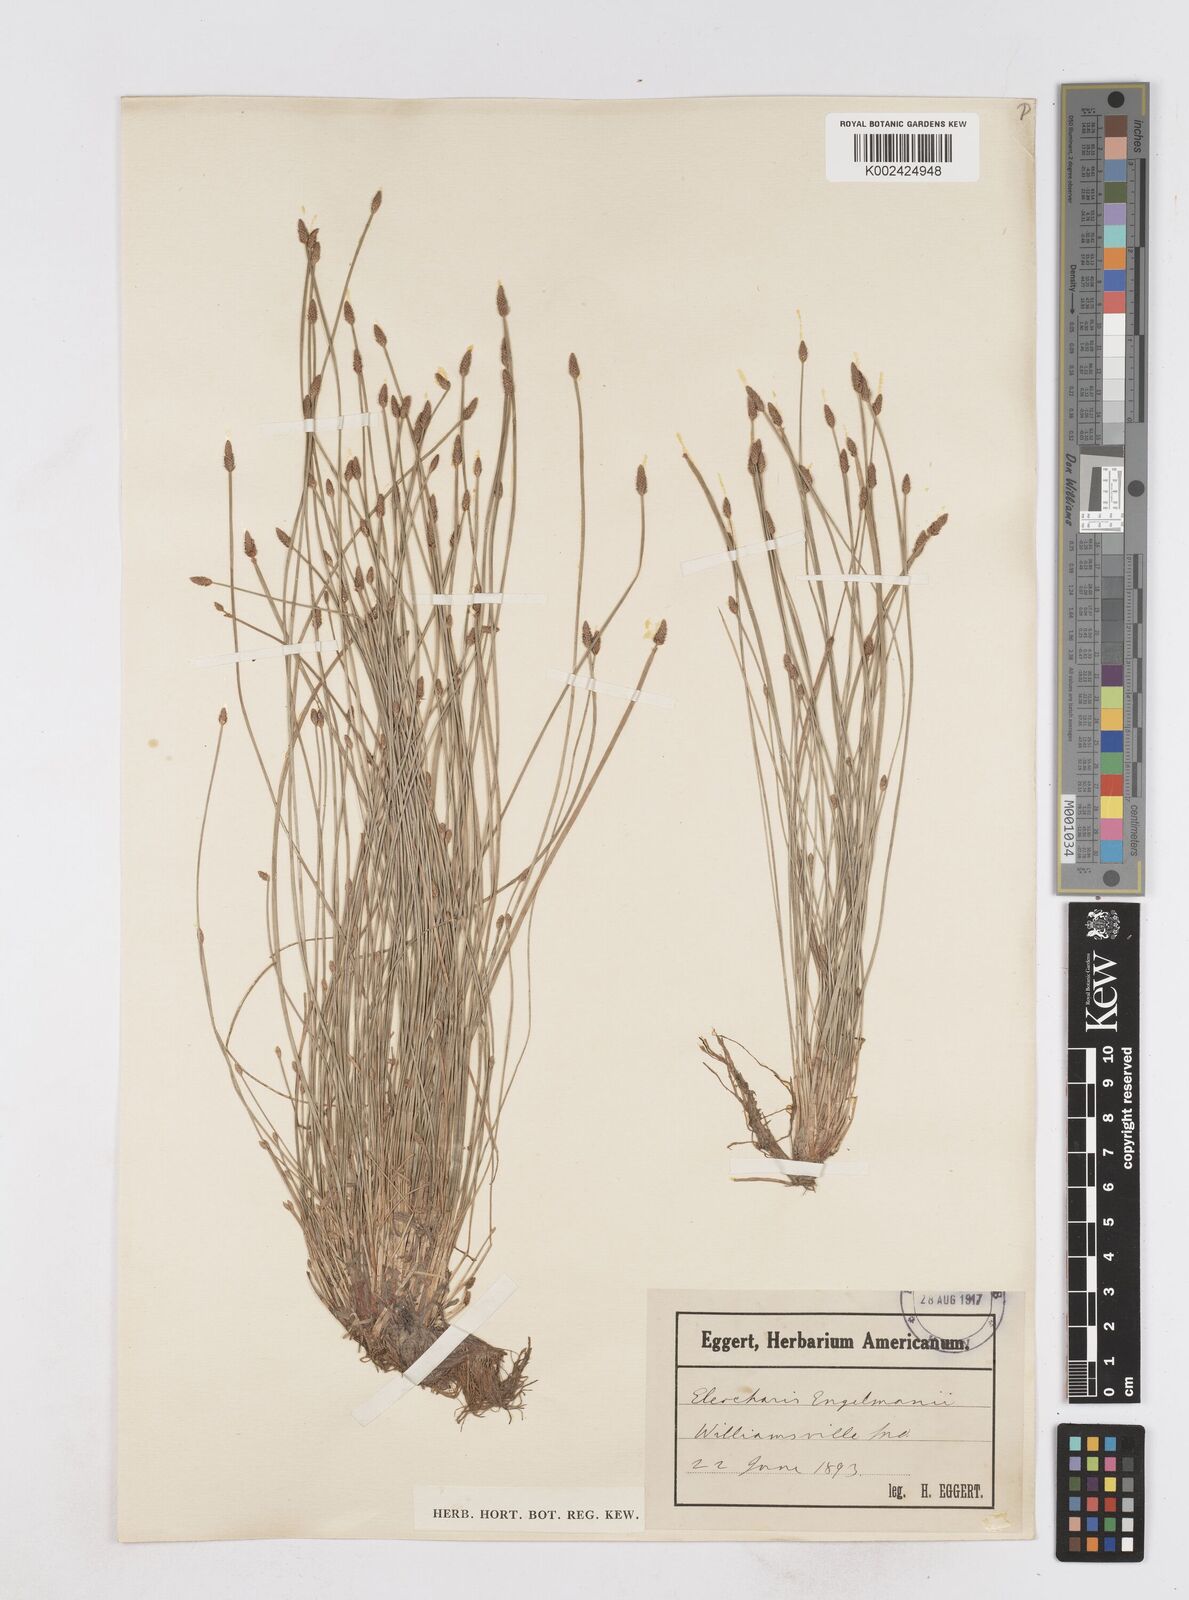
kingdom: Plantae
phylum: Tracheophyta
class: Liliopsida
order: Poales
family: Cyperaceae
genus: Eleocharis
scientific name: Eleocharis engelmannii
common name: Engelmann's spikerush
